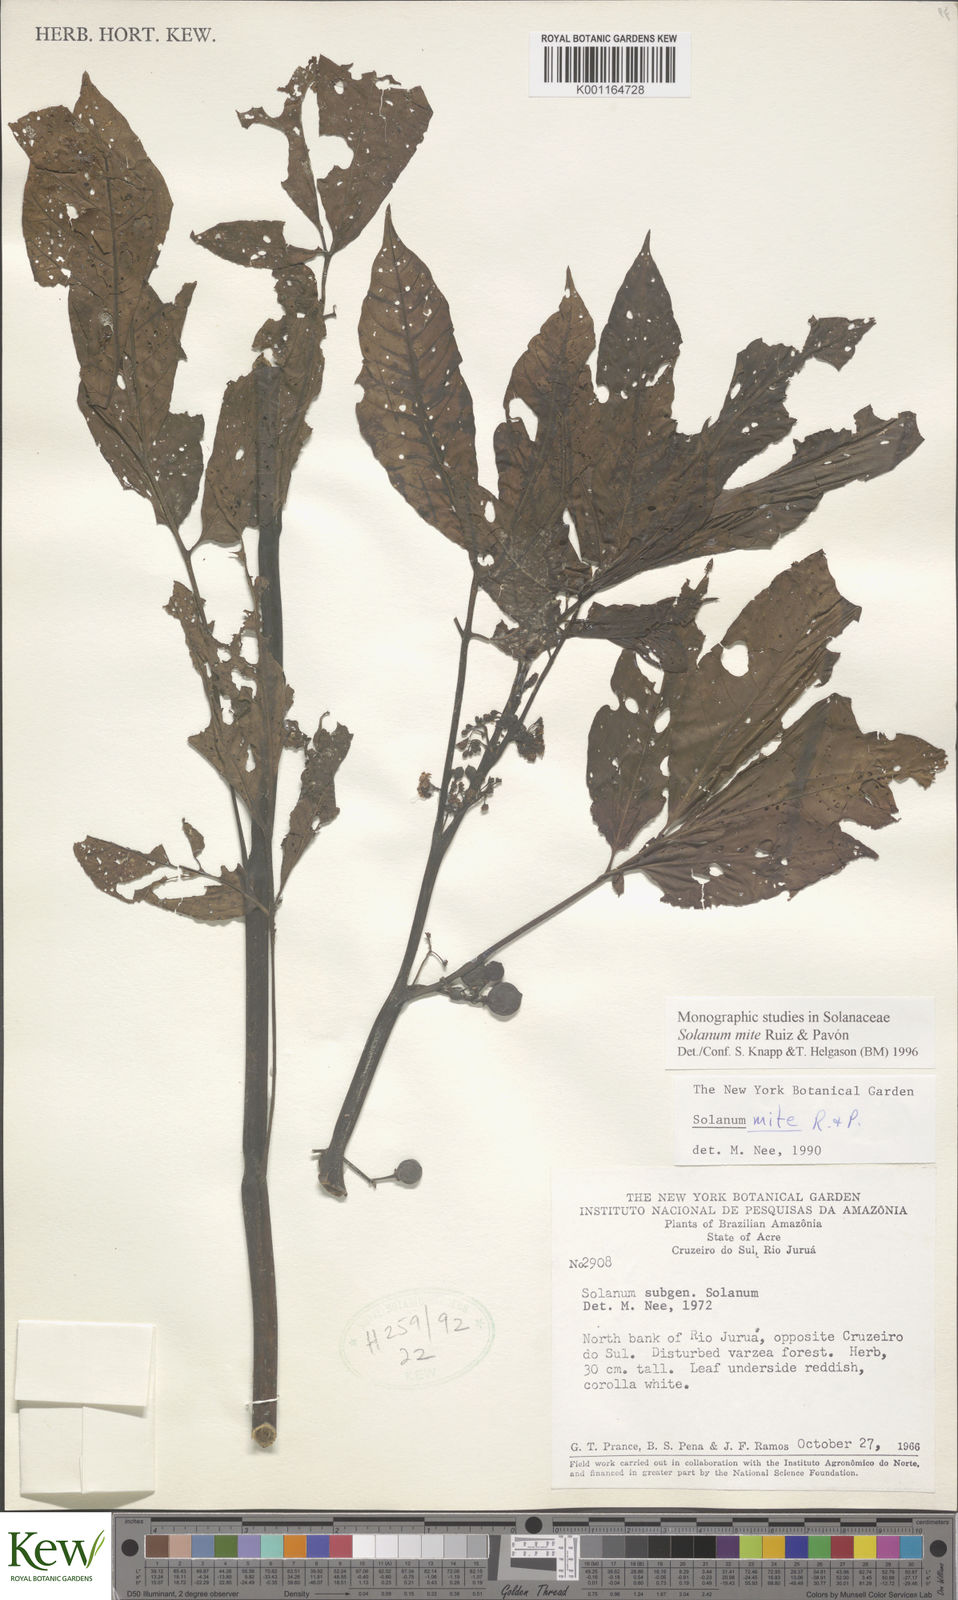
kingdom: Plantae
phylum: Tracheophyta
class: Magnoliopsida
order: Solanales
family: Solanaceae
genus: Solanum
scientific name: Solanum mite
